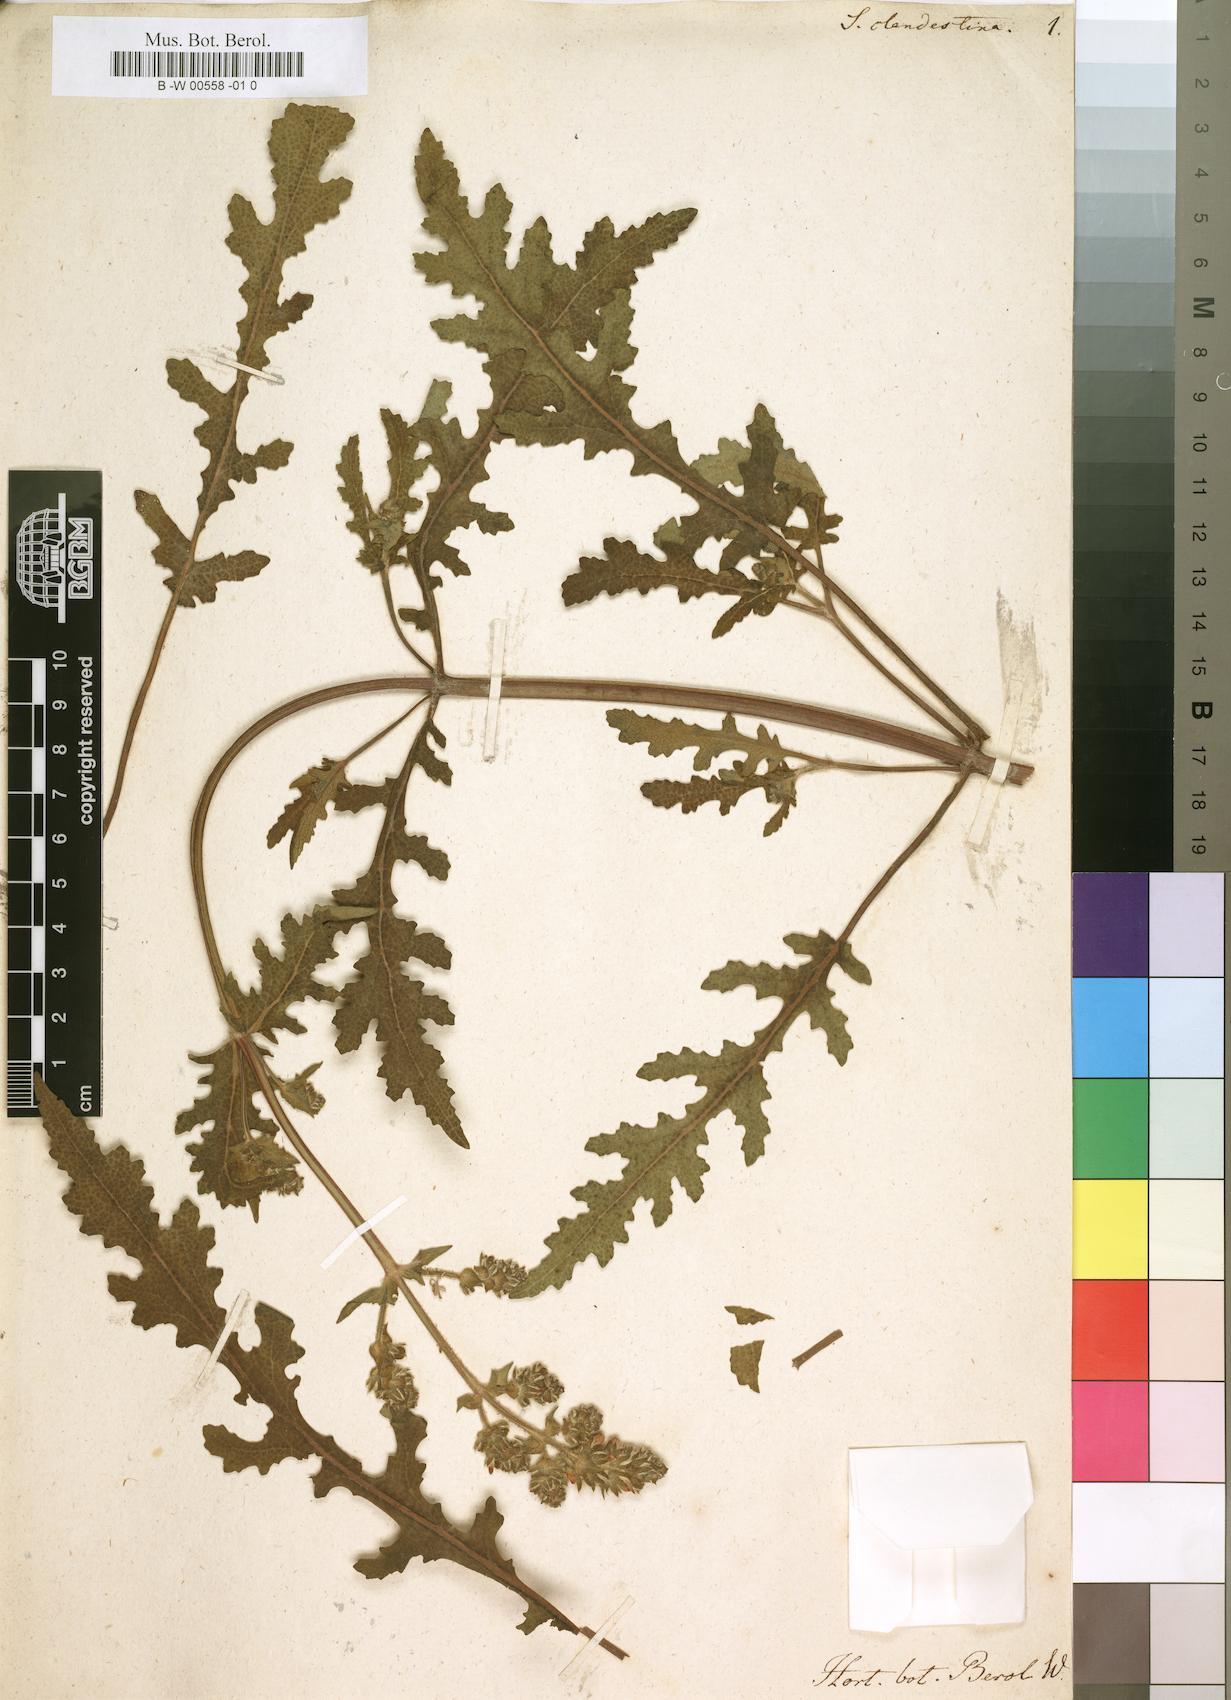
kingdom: Plantae
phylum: Tracheophyta
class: Magnoliopsida
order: Lamiales
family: Lamiaceae
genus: Salvia
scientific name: Salvia clandestina
